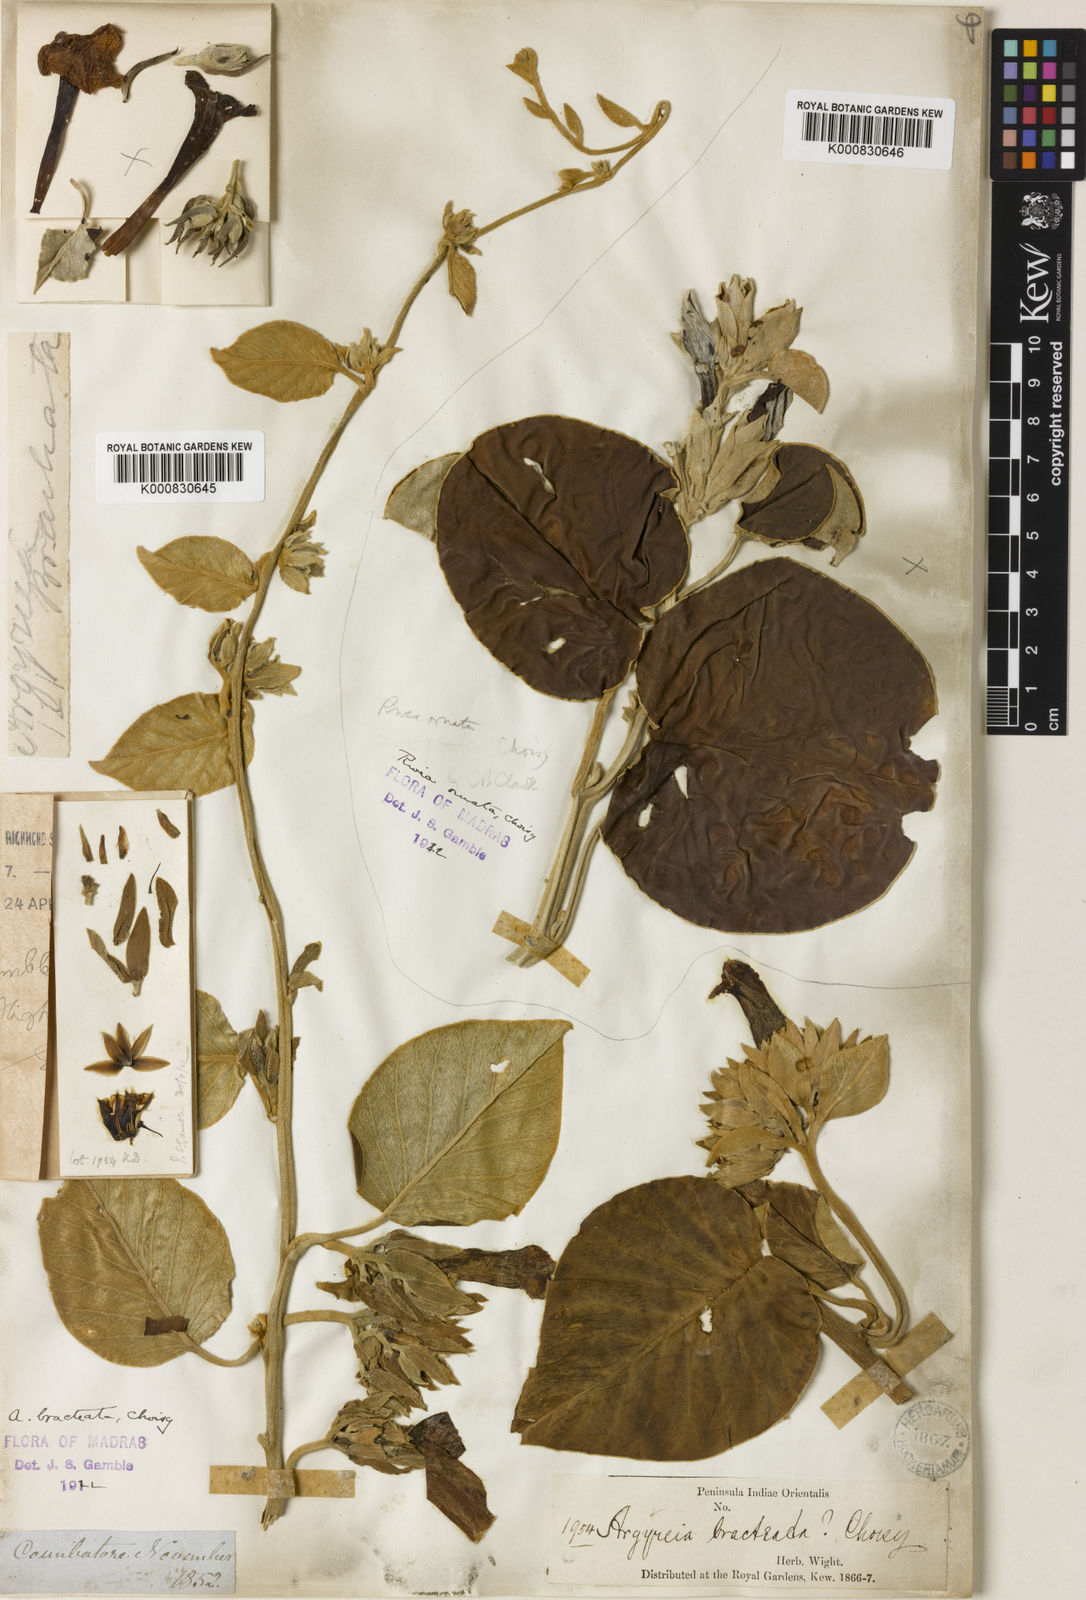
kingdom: Plantae
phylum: Tracheophyta
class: Magnoliopsida
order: Solanales
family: Convolvulaceae
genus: Argyreia
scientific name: Argyreia bracteata
